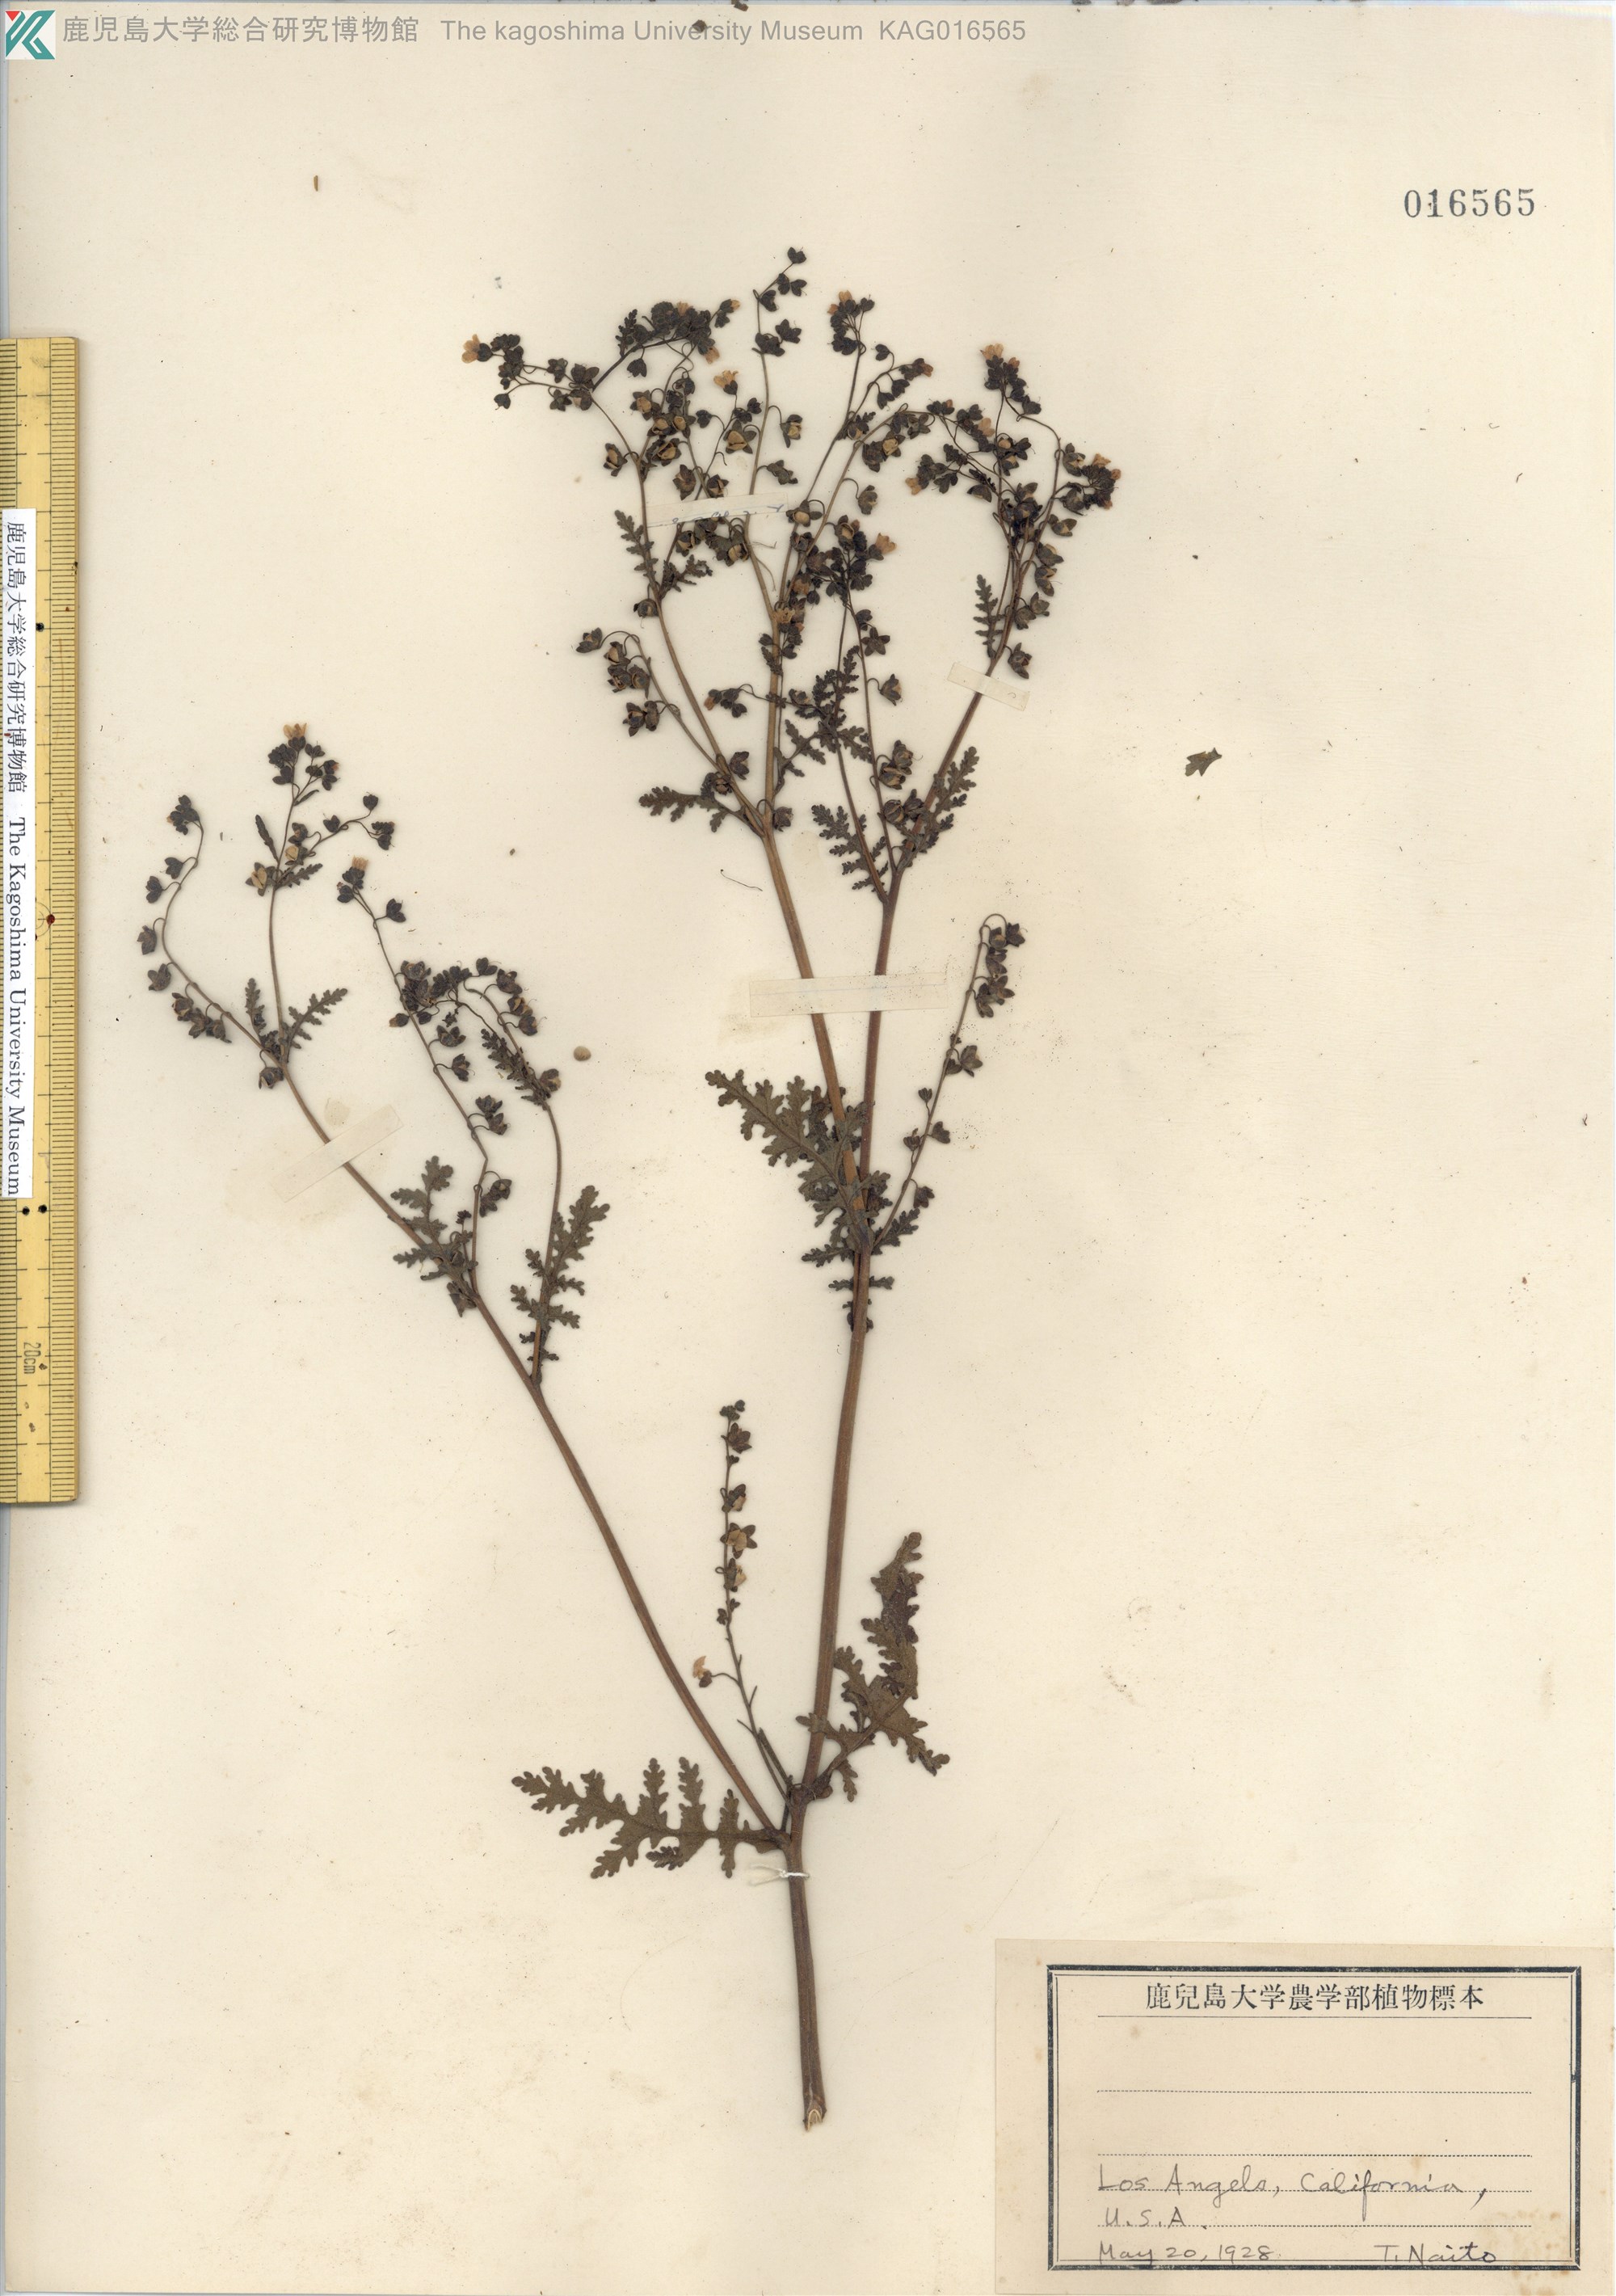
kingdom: Plantae
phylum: Tracheophyta
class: Magnoliopsida
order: Boraginales
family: Hydrophyllaceae
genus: Pholistoma
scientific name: Pholistoma membranaceum
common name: White fiesta-flower
